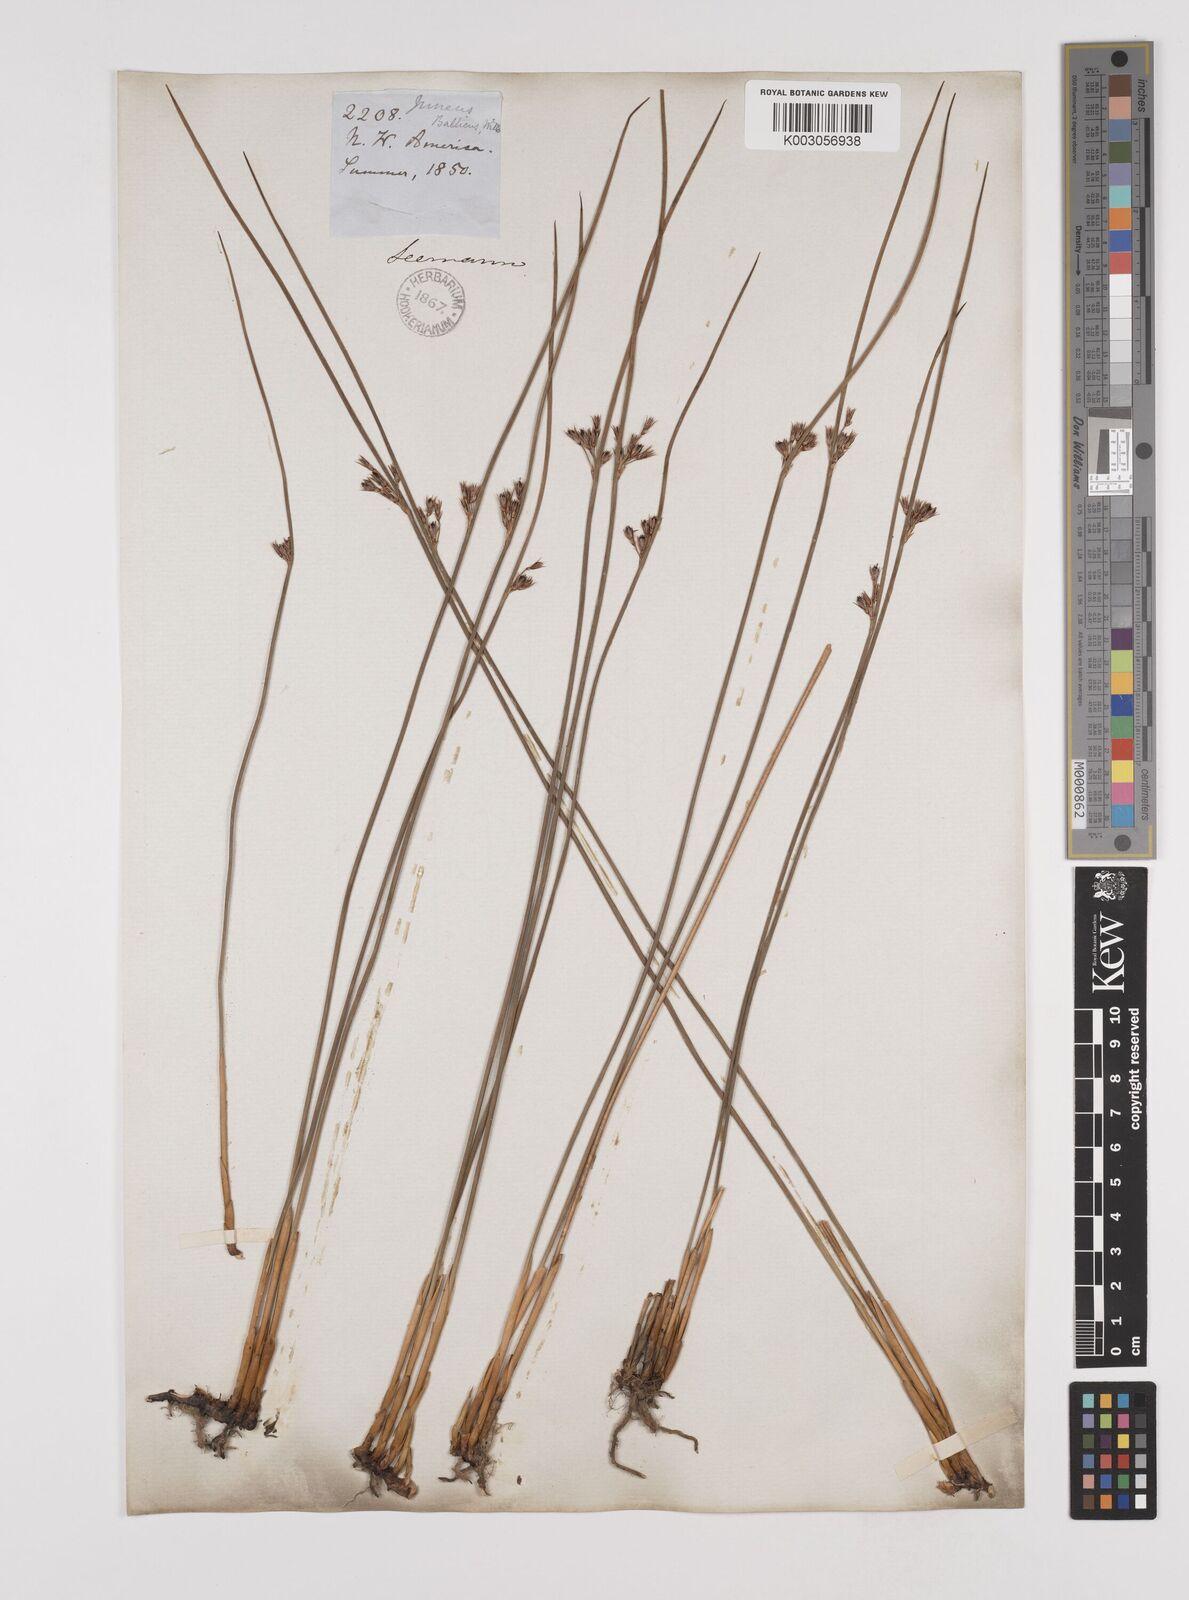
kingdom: Plantae
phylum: Tracheophyta
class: Liliopsida
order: Poales
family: Juncaceae
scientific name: Juncaceae
